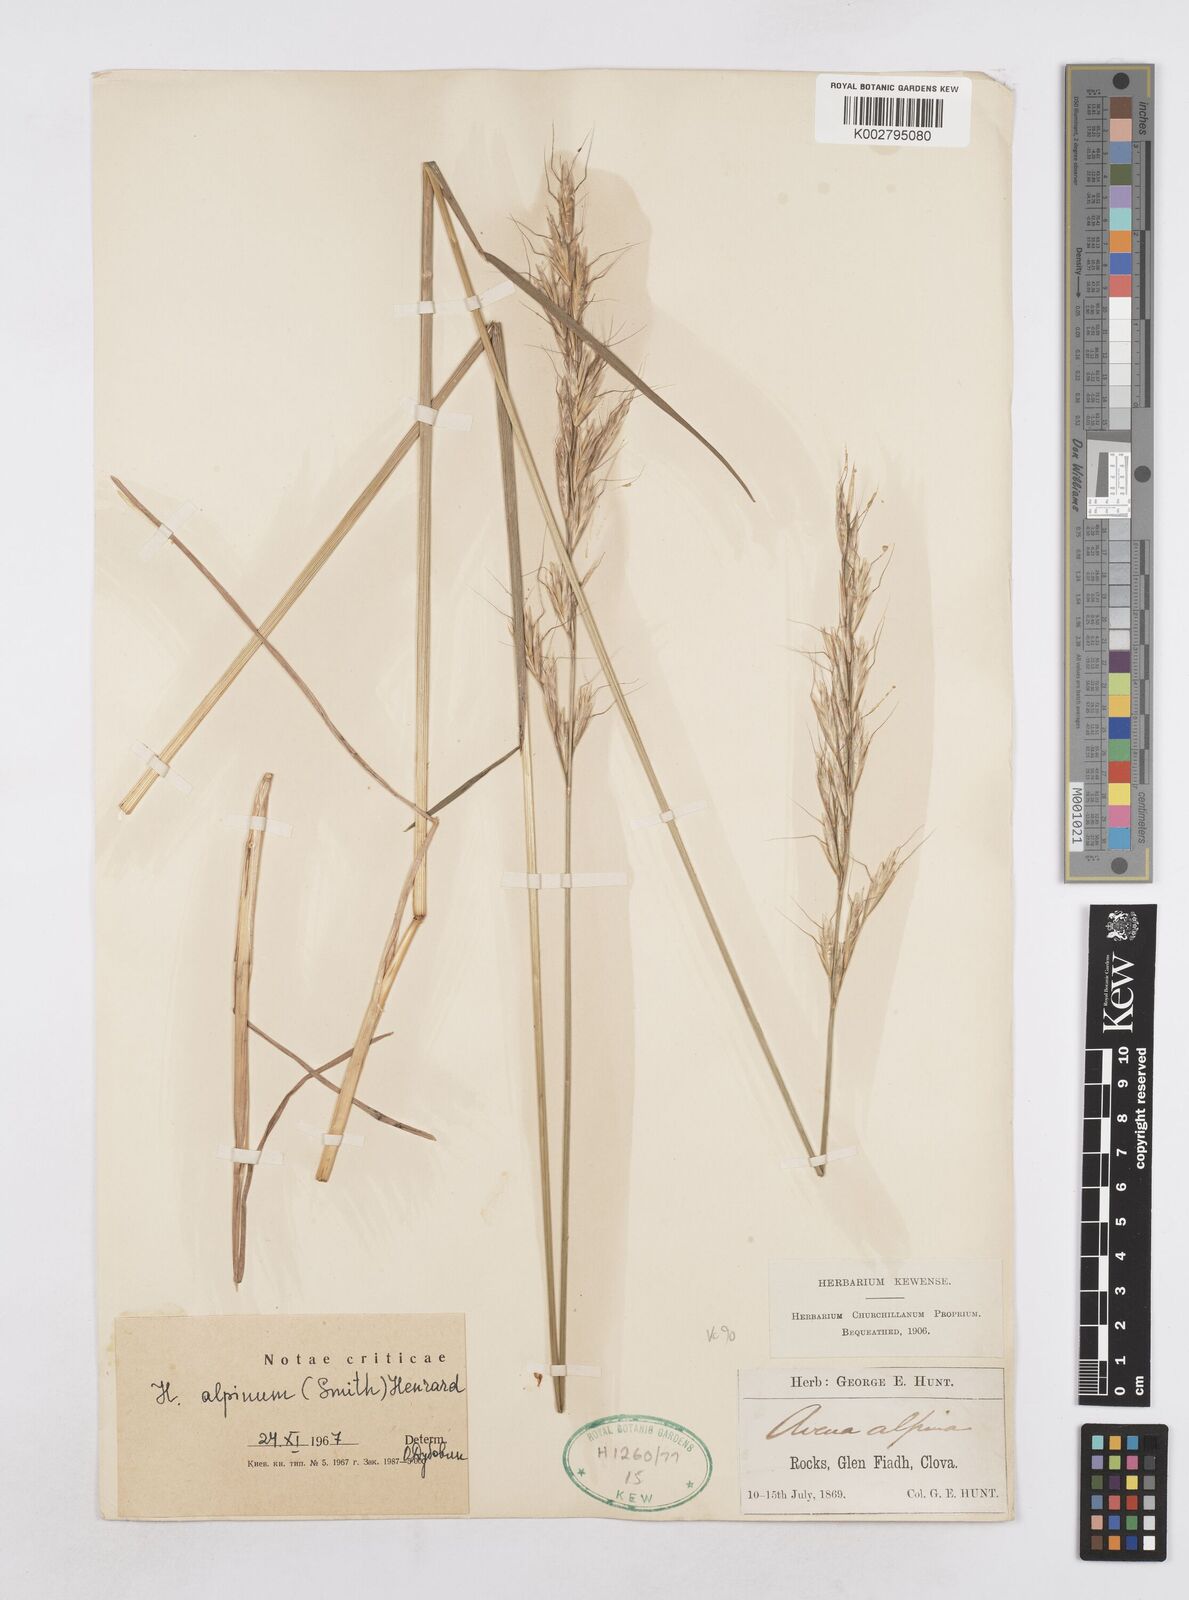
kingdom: Plantae
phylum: Tracheophyta
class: Liliopsida
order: Poales
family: Poaceae
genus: Helictochloa
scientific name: Helictochloa pratensis
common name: Meadow oat grass
